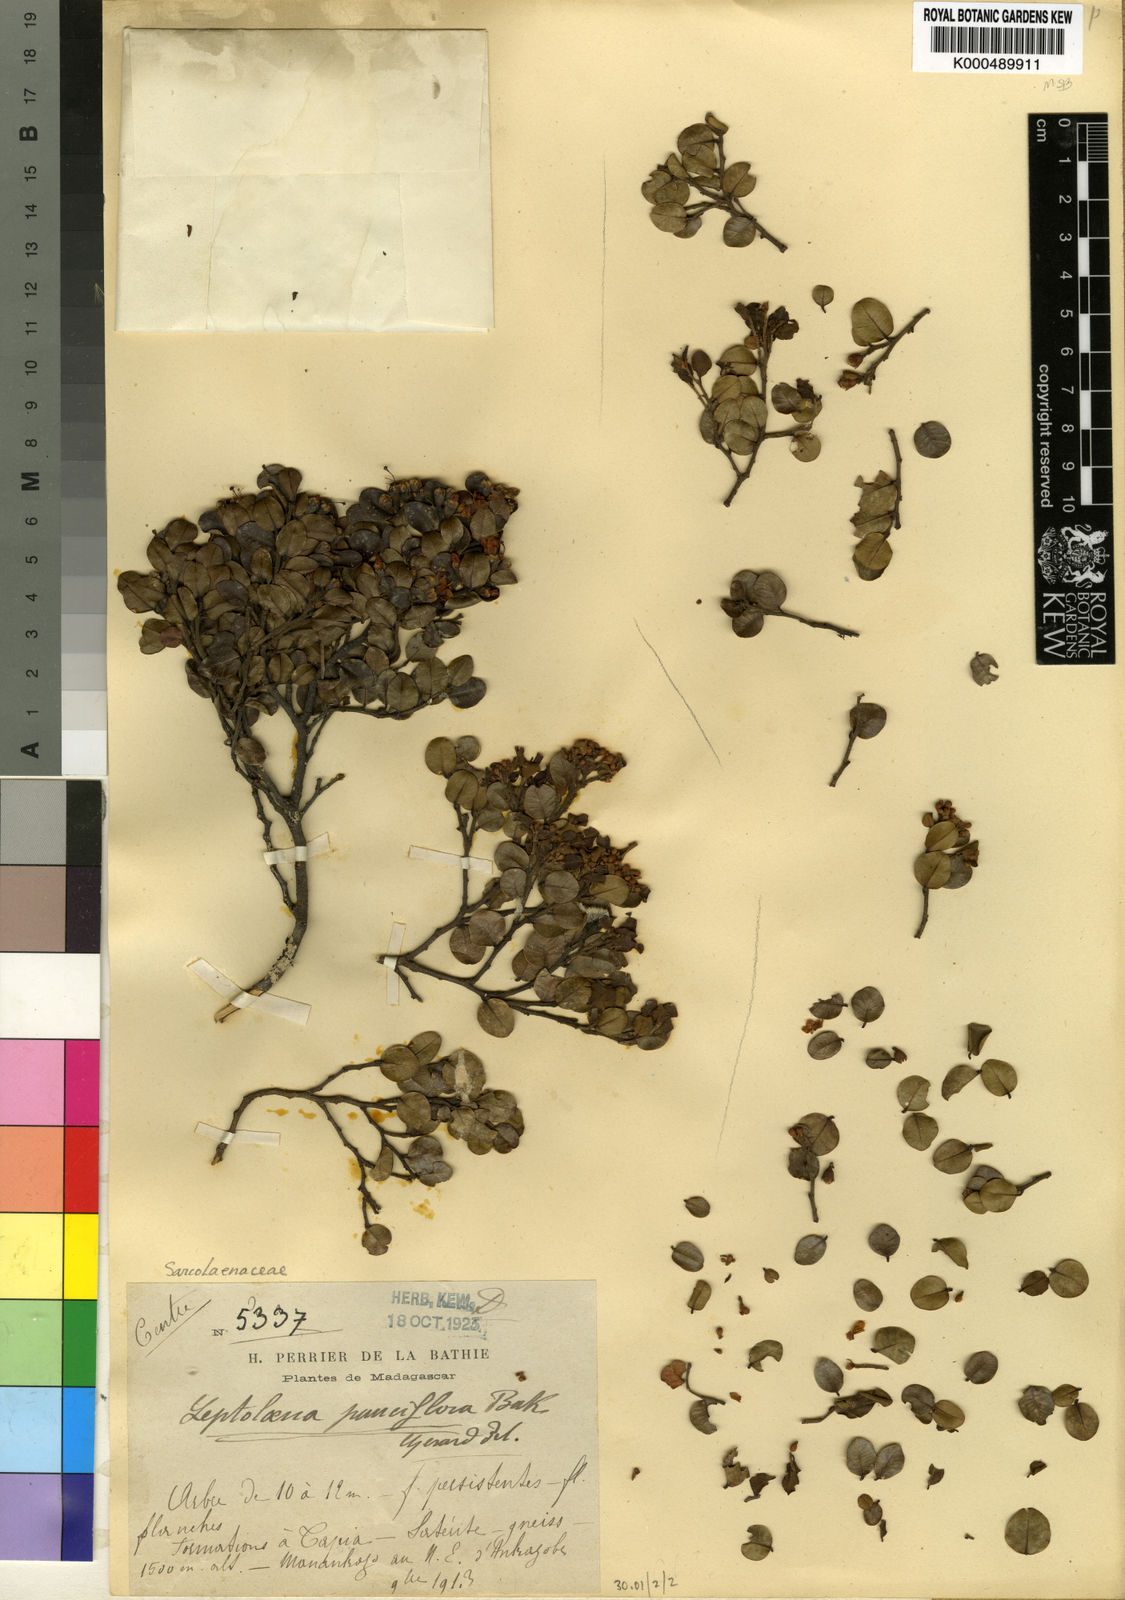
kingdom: Plantae
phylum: Tracheophyta
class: Magnoliopsida
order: Malvales
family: Sarcolaenaceae
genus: Leptolaena
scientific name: Leptolaena pauciflora
